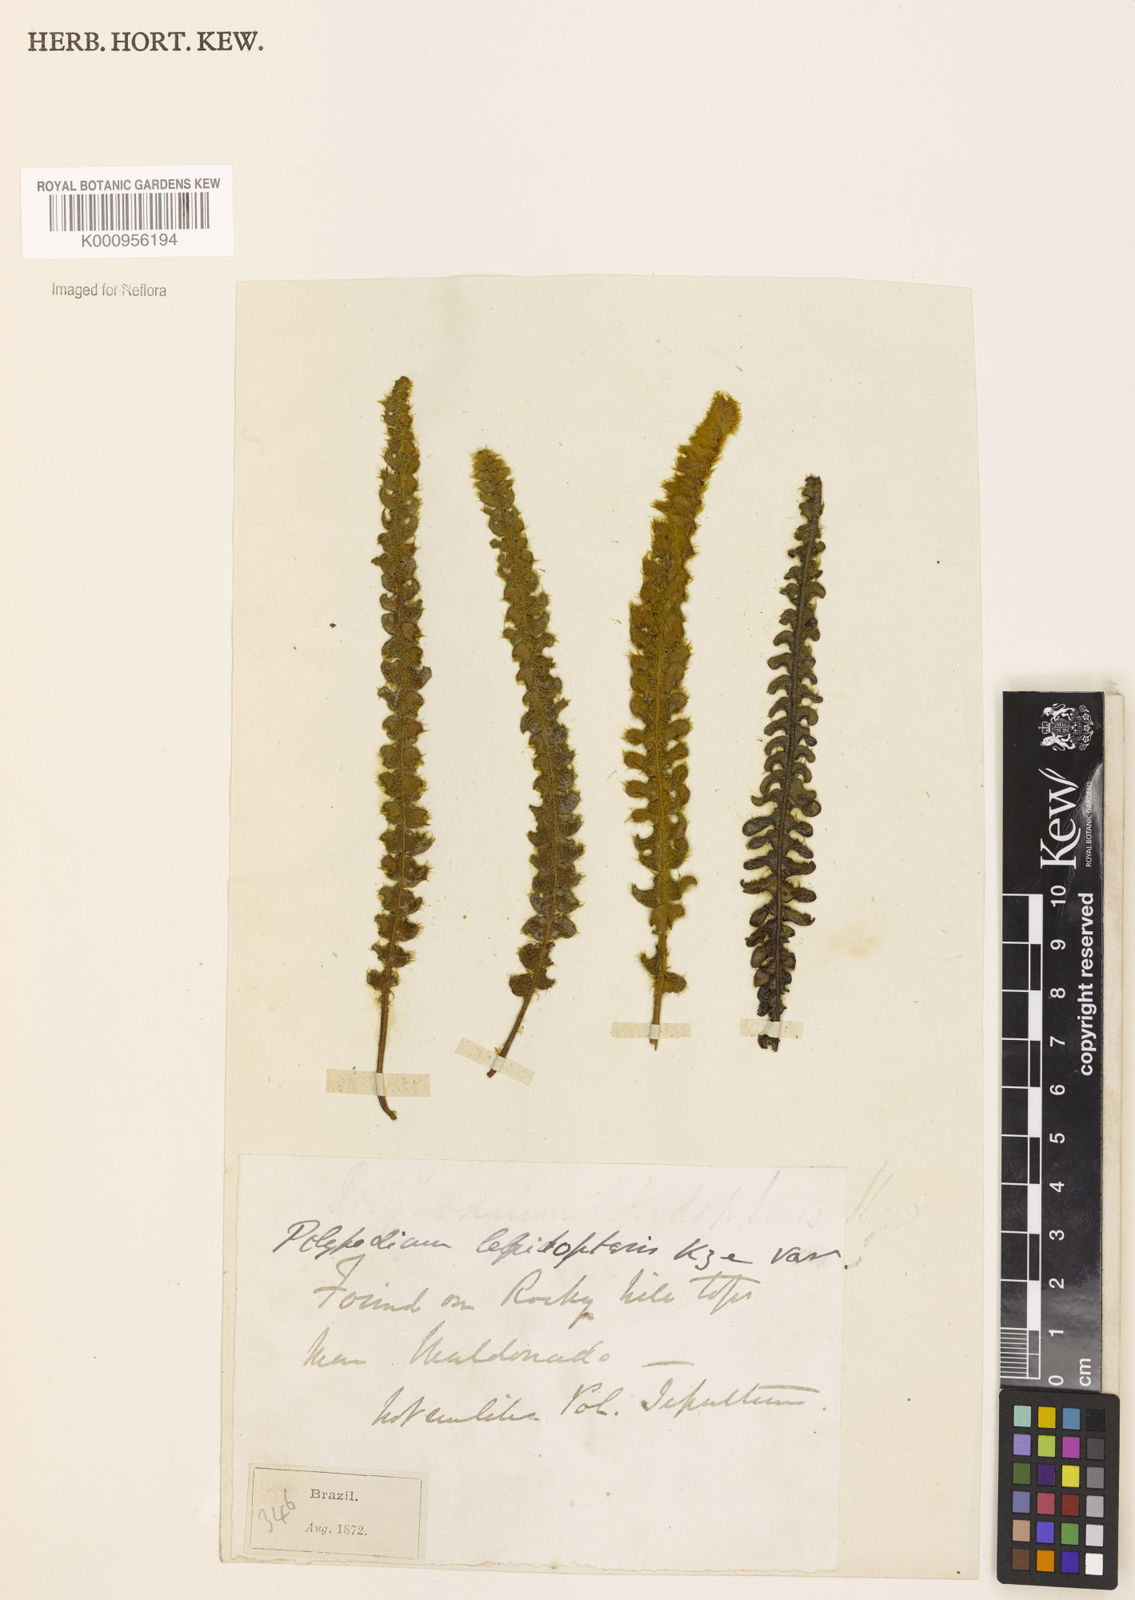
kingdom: Plantae
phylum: Tracheophyta
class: Polypodiopsida
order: Polypodiales
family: Polypodiaceae
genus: Pleopeltis
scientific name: Pleopeltis lepidopteris
